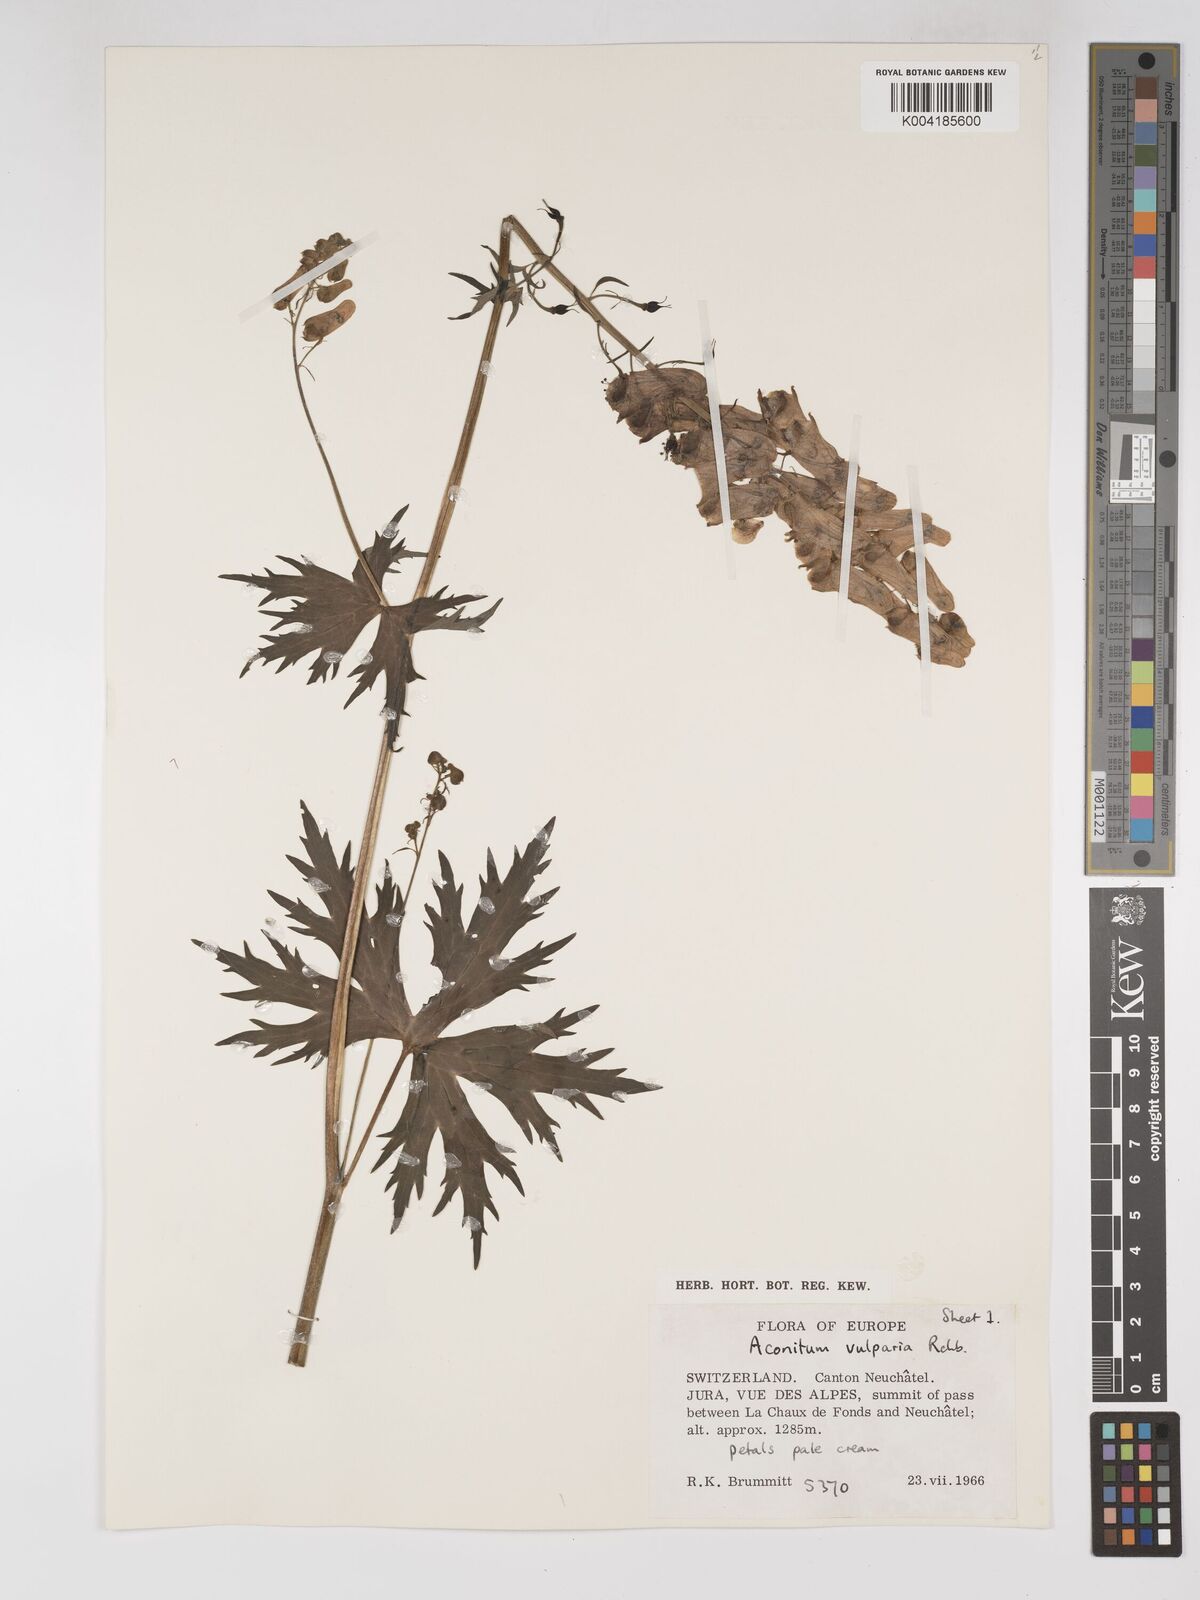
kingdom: Plantae
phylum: Tracheophyta
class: Magnoliopsida
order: Ranunculales
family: Ranunculaceae
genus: Aconitum
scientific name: Aconitum lycoctonum
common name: Wolf's-bane
